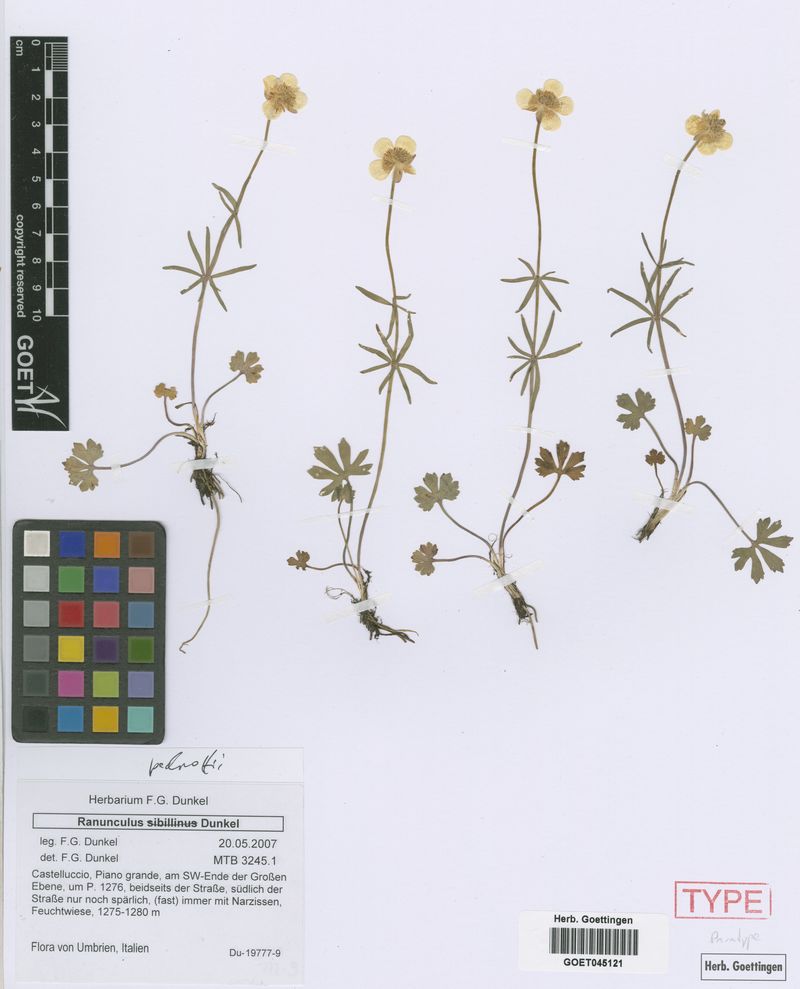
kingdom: Plantae
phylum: Tracheophyta
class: Magnoliopsida
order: Ranunculales
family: Ranunculaceae
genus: Ranunculus
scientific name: Ranunculus pedrottii
